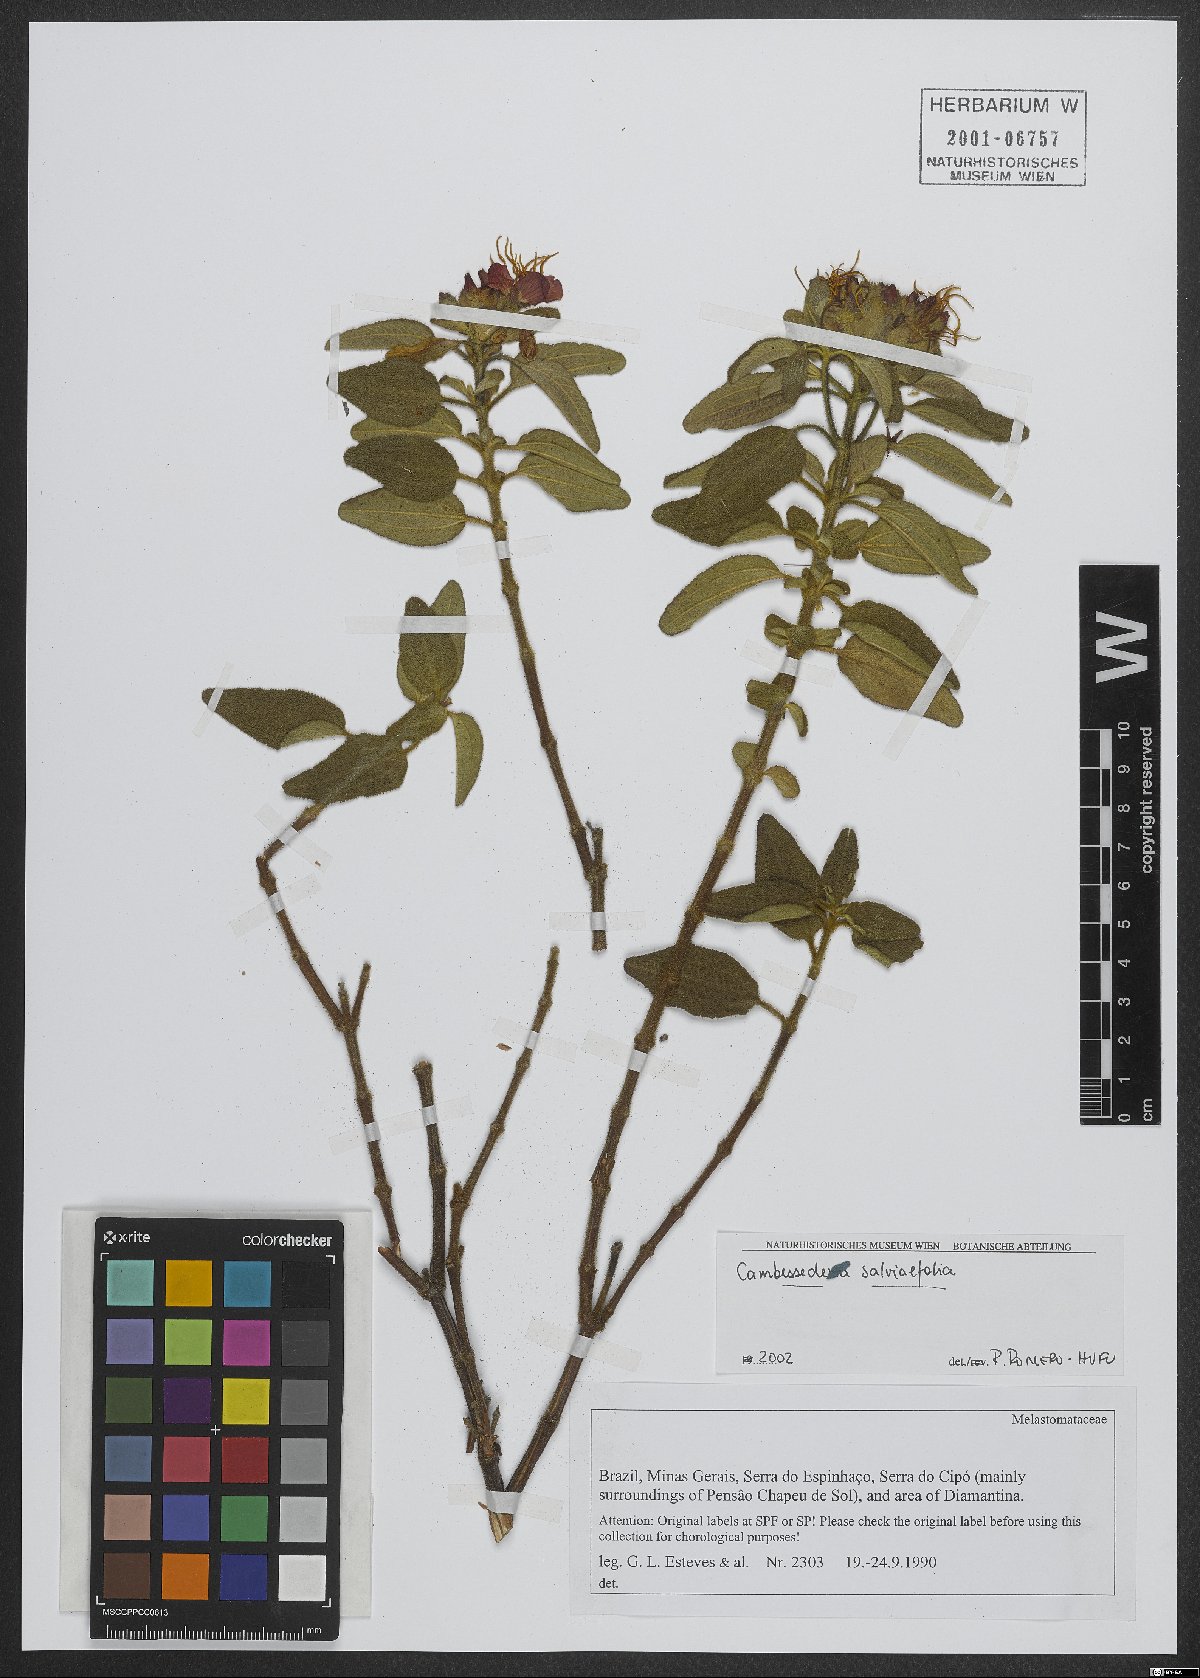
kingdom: Plantae
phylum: Tracheophyta
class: Magnoliopsida
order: Myrtales
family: Melastomataceae
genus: Cambessedesia
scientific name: Cambessedesia salviifolia
